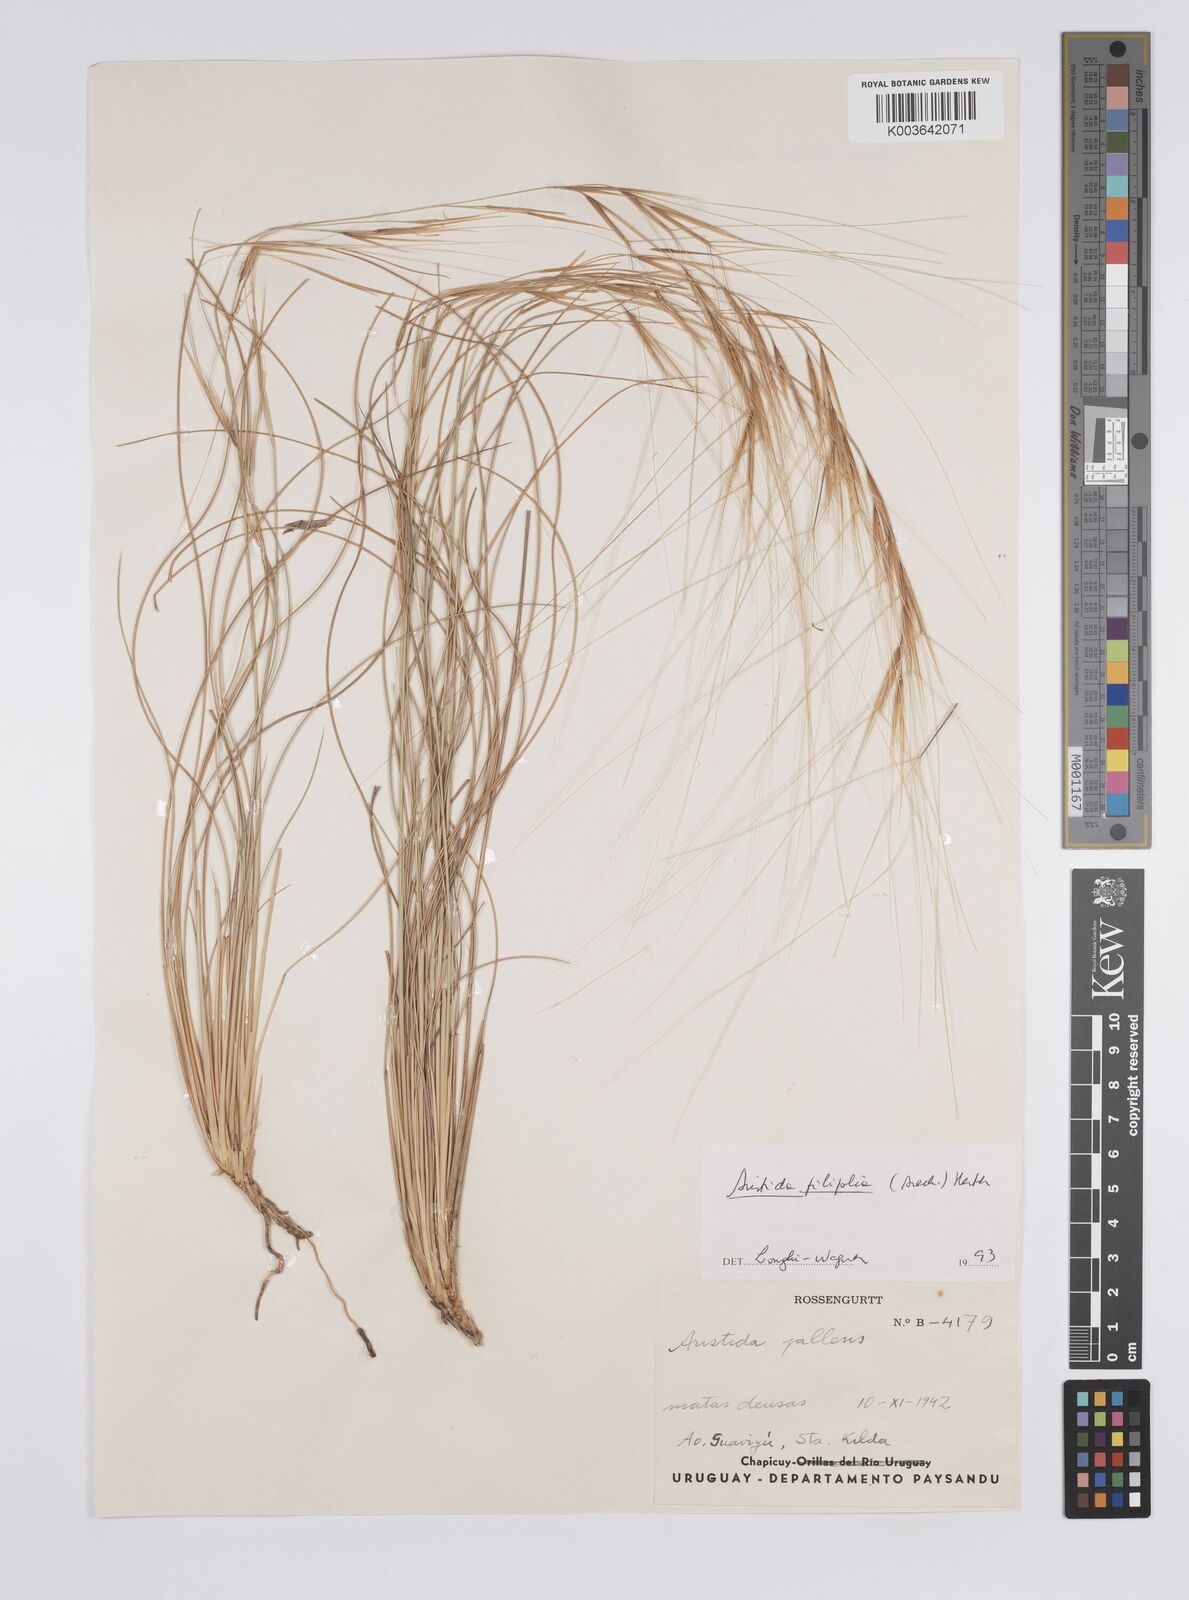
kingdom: Plantae
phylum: Tracheophyta
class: Liliopsida
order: Poales
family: Poaceae
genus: Aristida
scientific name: Aristida pallens
